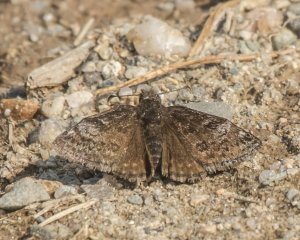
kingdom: Animalia
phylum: Arthropoda
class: Insecta
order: Lepidoptera
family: Hesperiidae
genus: Erynnis
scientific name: Erynnis icelus
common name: Dreamy Duskywing
